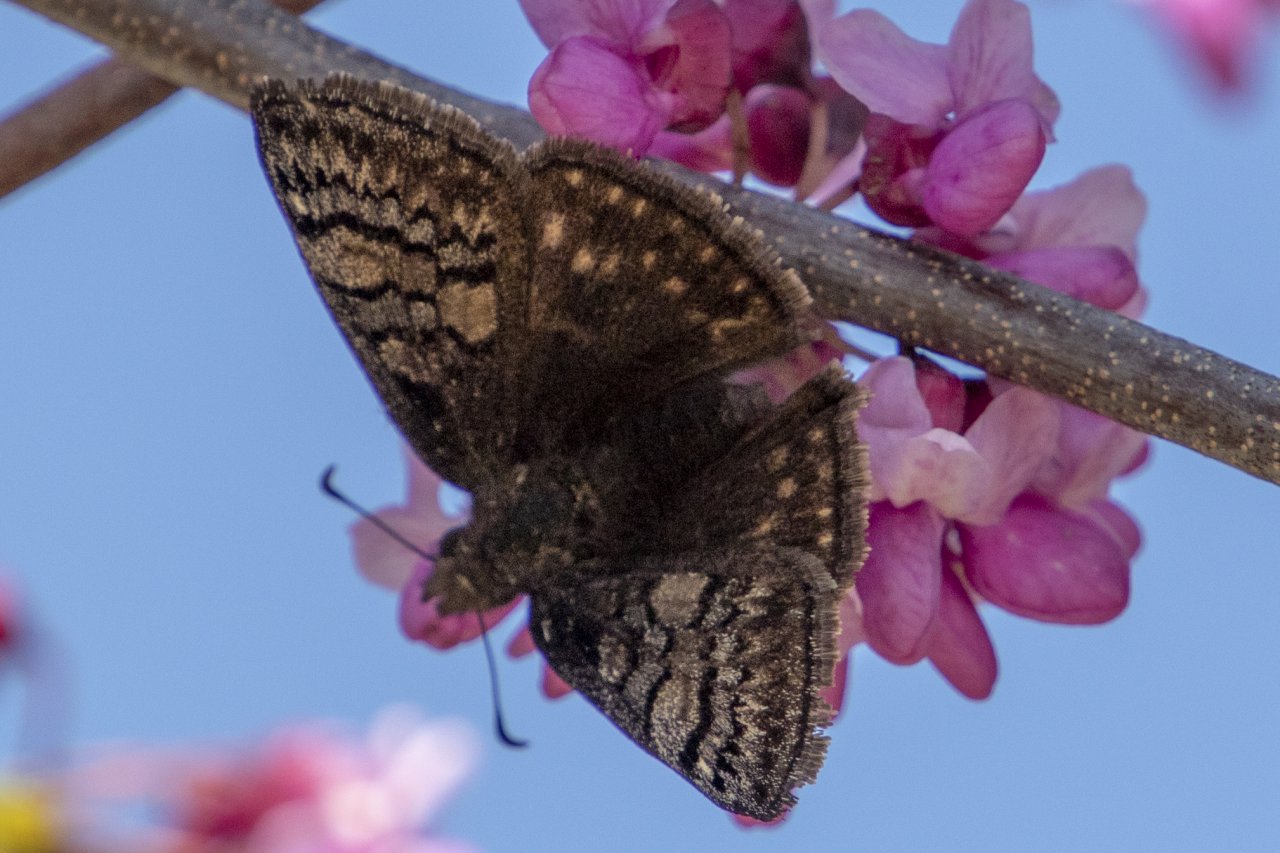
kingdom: Animalia
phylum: Arthropoda
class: Insecta
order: Lepidoptera
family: Hesperiidae
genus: Erynnis
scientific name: Erynnis brizo
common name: Sleepy Duskywing
